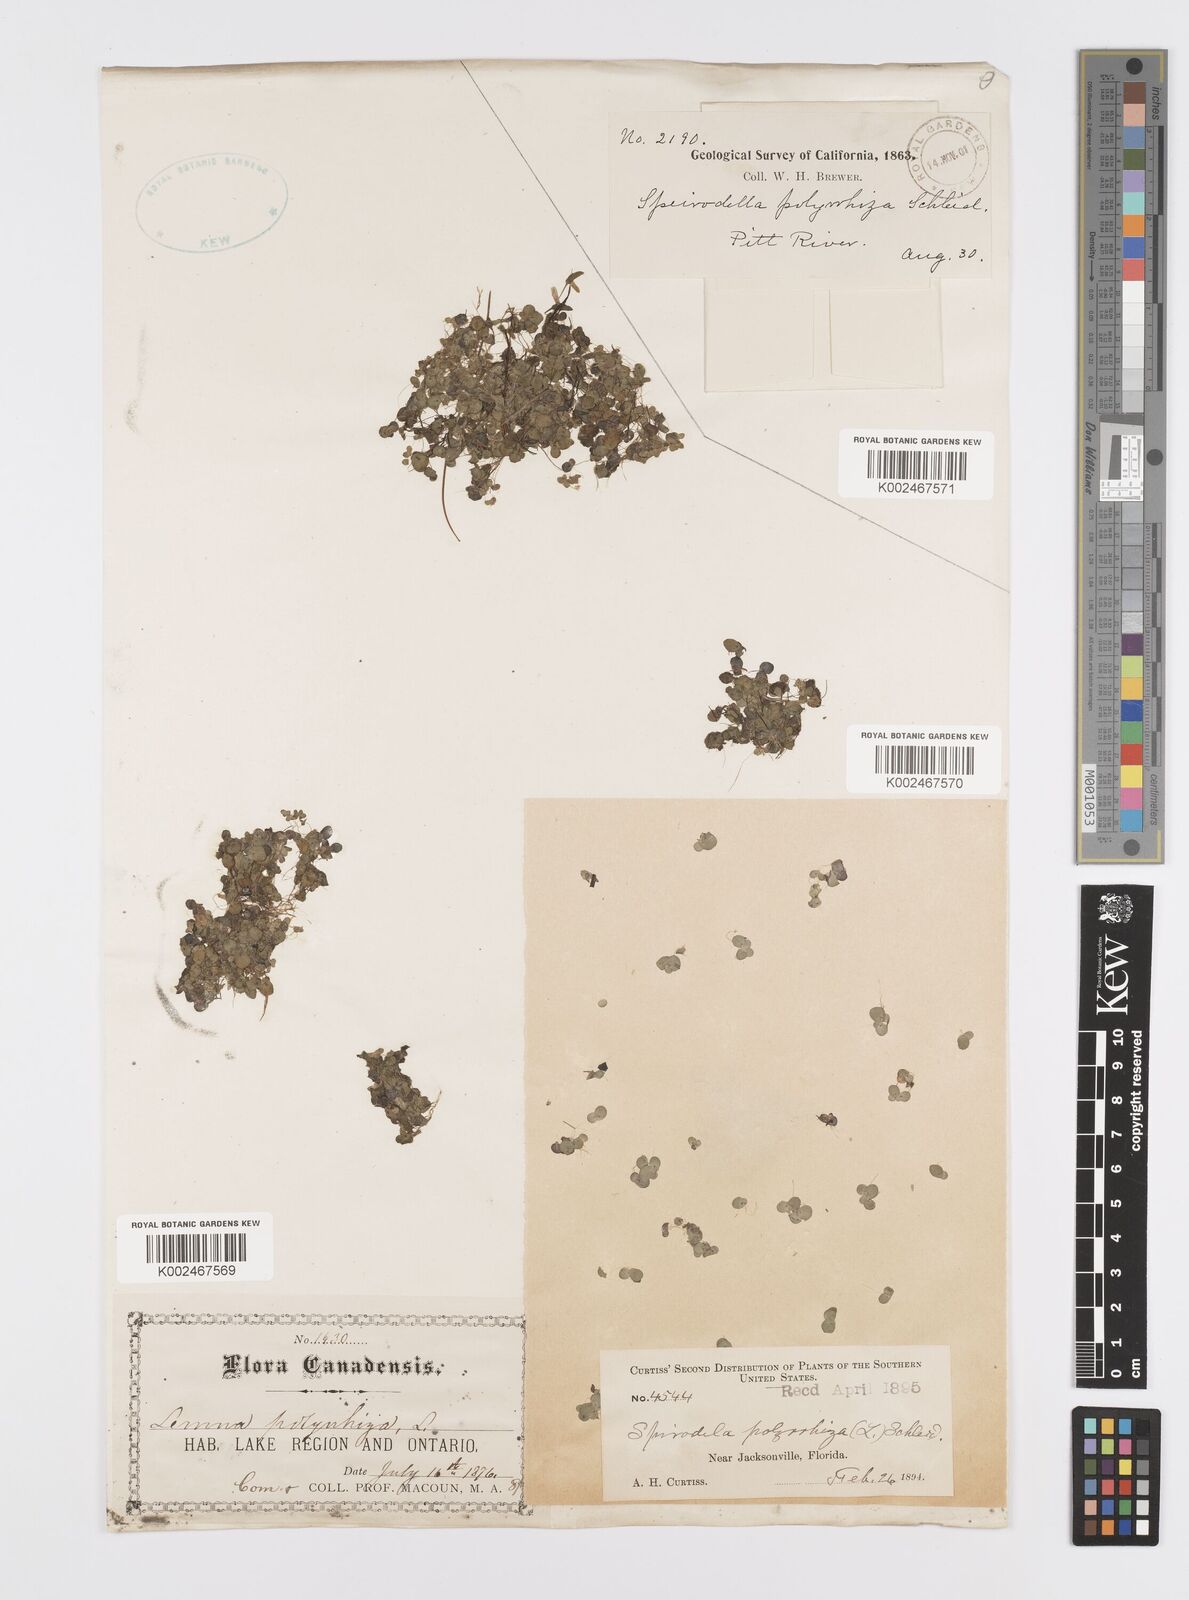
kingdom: Plantae
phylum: Tracheophyta
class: Liliopsida
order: Alismatales
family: Araceae
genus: Spirodela
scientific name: Spirodela polyrhiza
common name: Great duckweed
